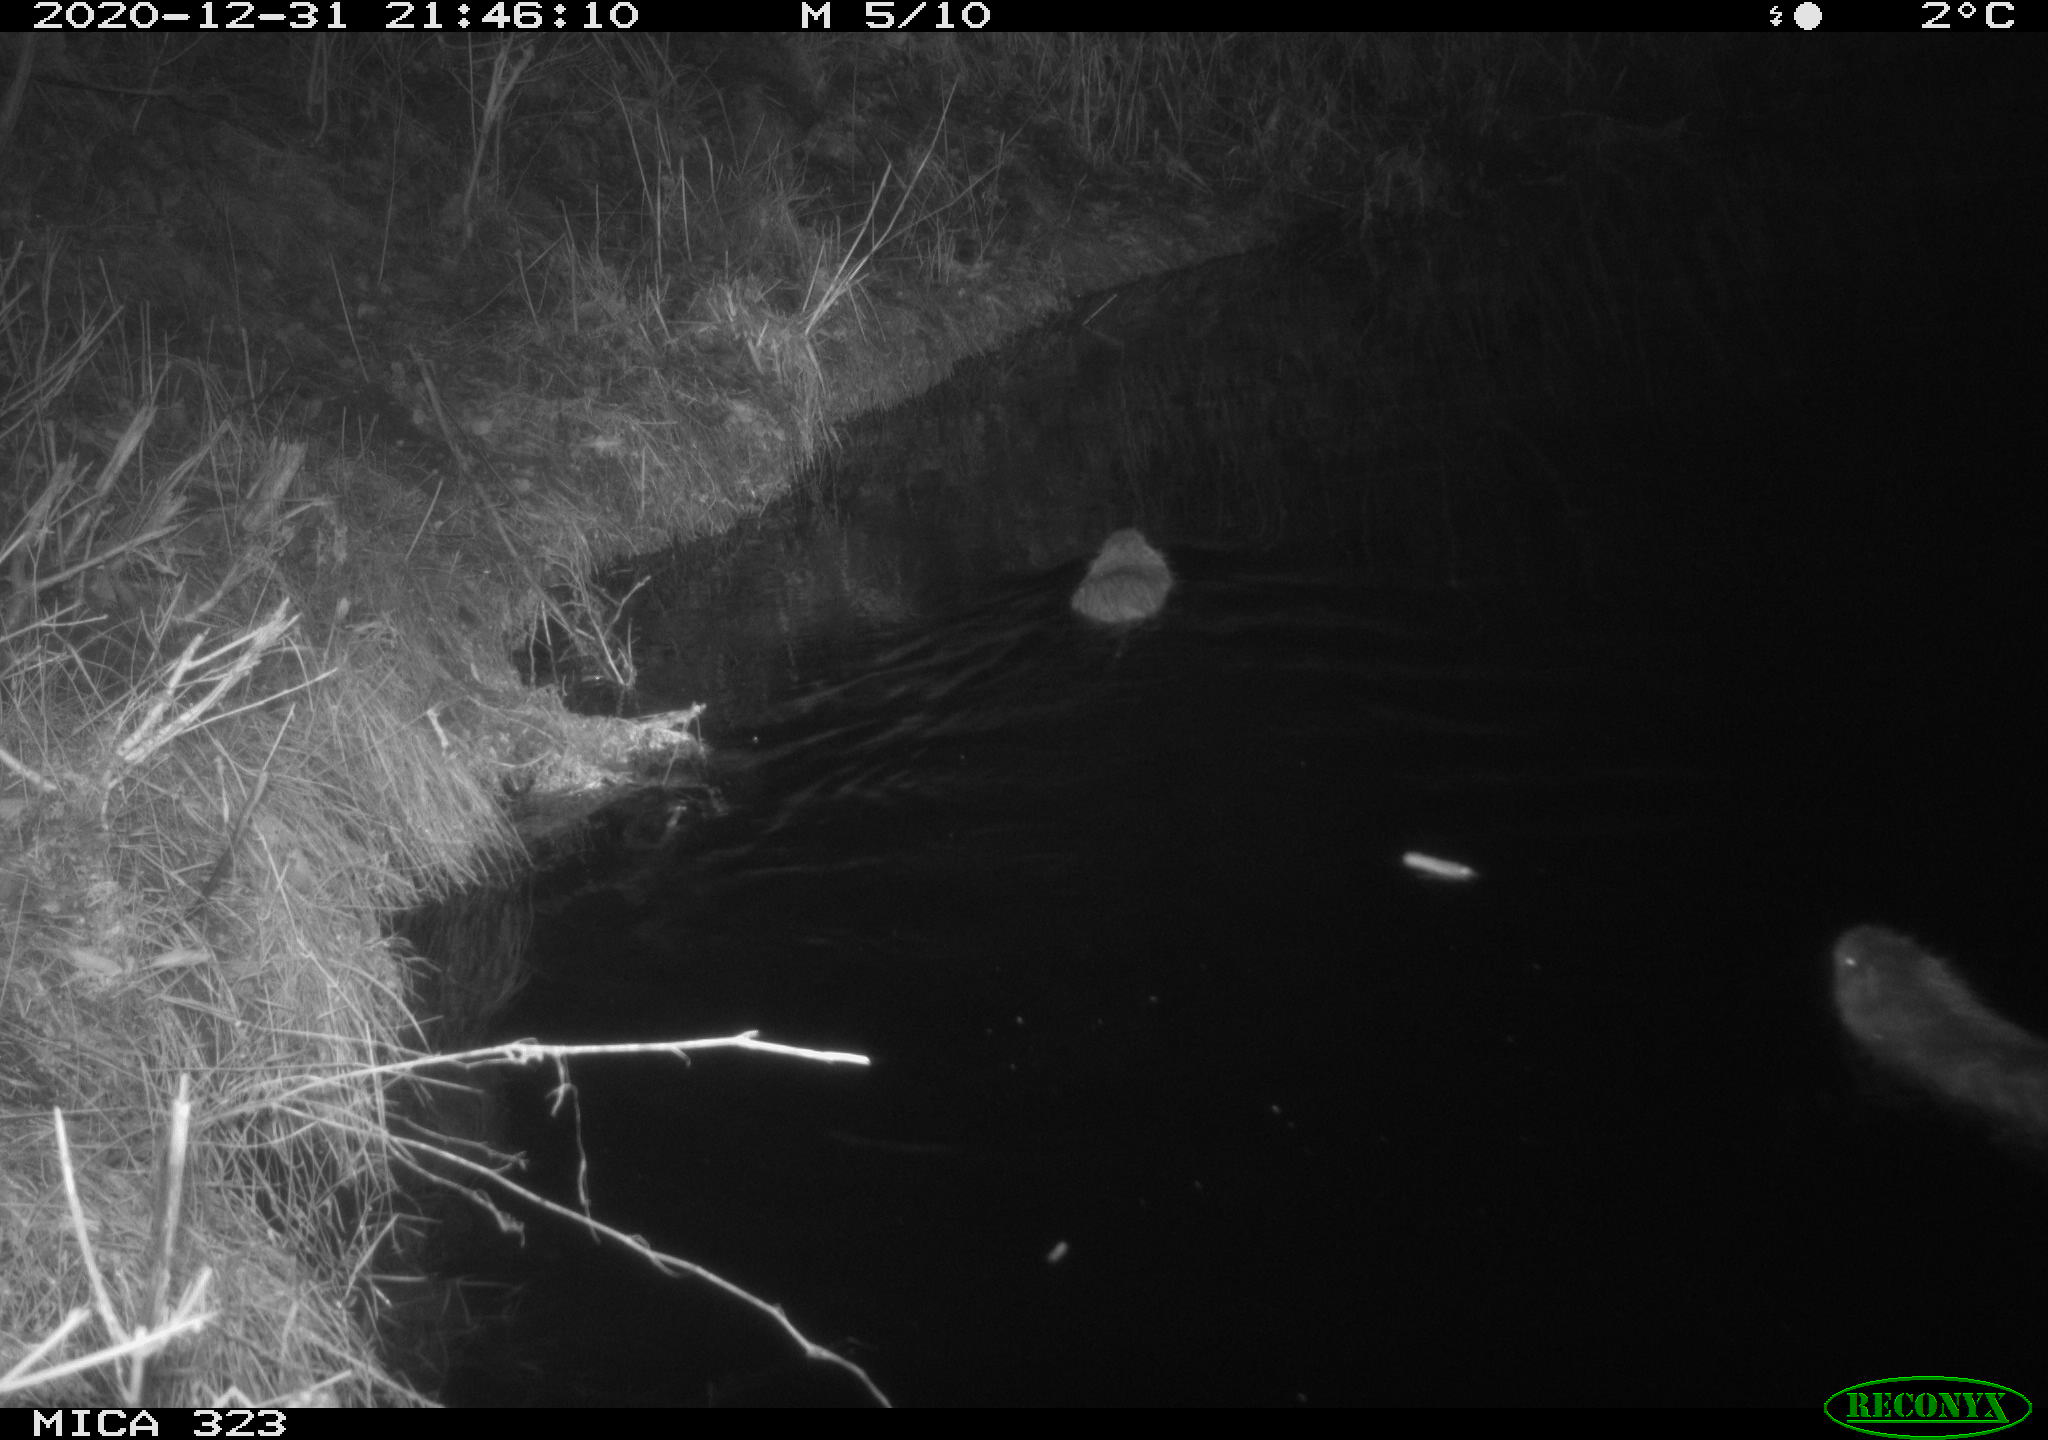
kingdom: Animalia
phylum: Chordata
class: Mammalia
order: Rodentia
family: Myocastoridae
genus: Myocastor
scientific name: Myocastor coypus
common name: Coypu
